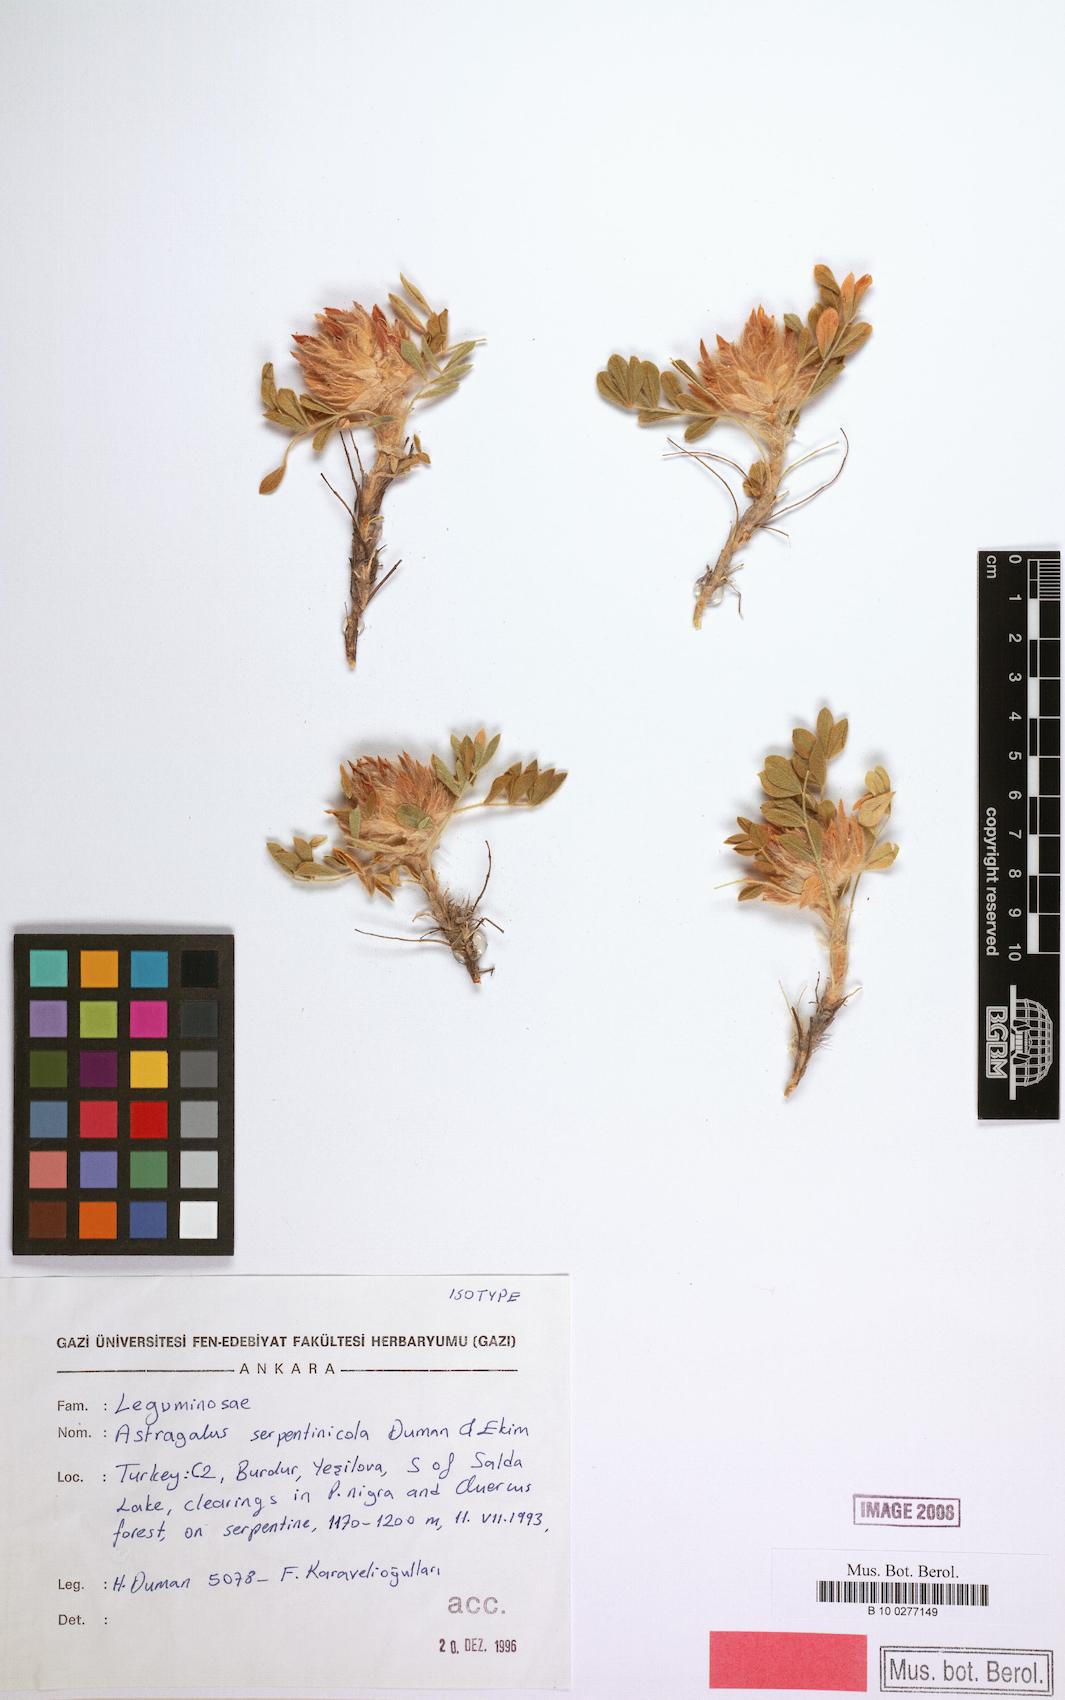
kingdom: Plantae
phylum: Tracheophyta
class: Magnoliopsida
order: Fabales
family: Fabaceae
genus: Astragalus
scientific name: Astragalus serpentinicola
